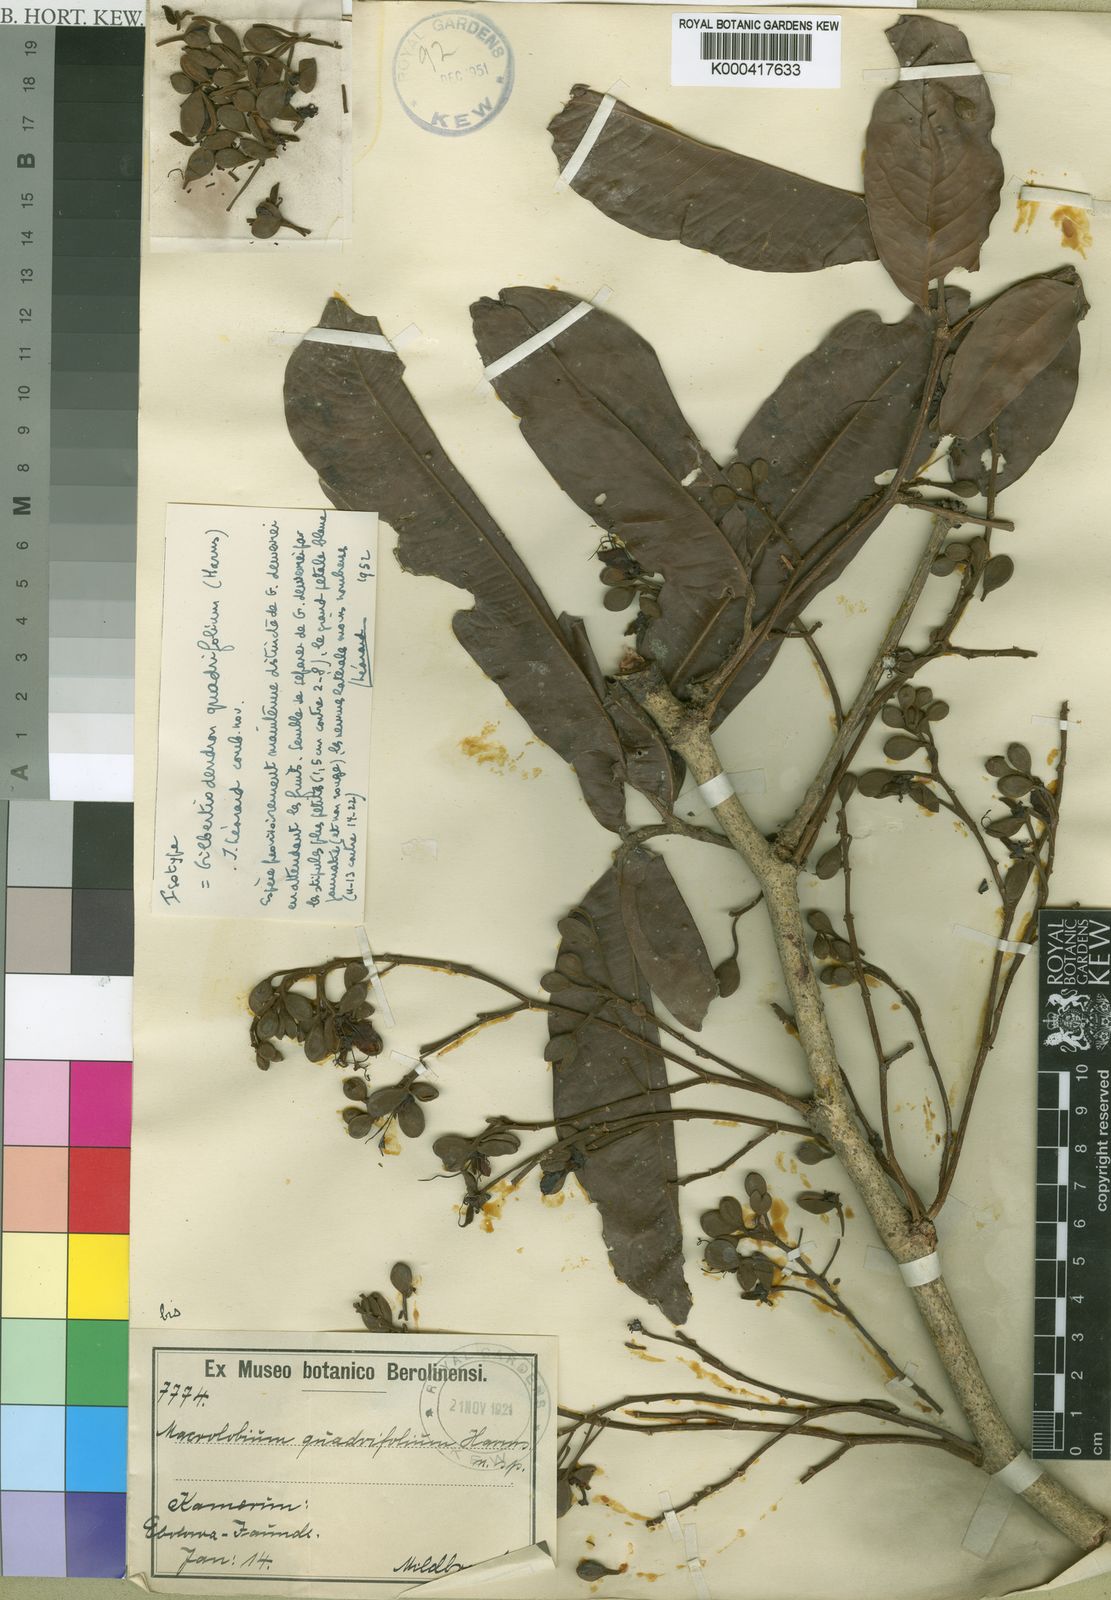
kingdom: Plantae
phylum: Tracheophyta
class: Magnoliopsida
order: Fabales
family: Fabaceae
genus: Gilbertiodendron
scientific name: Gilbertiodendron
